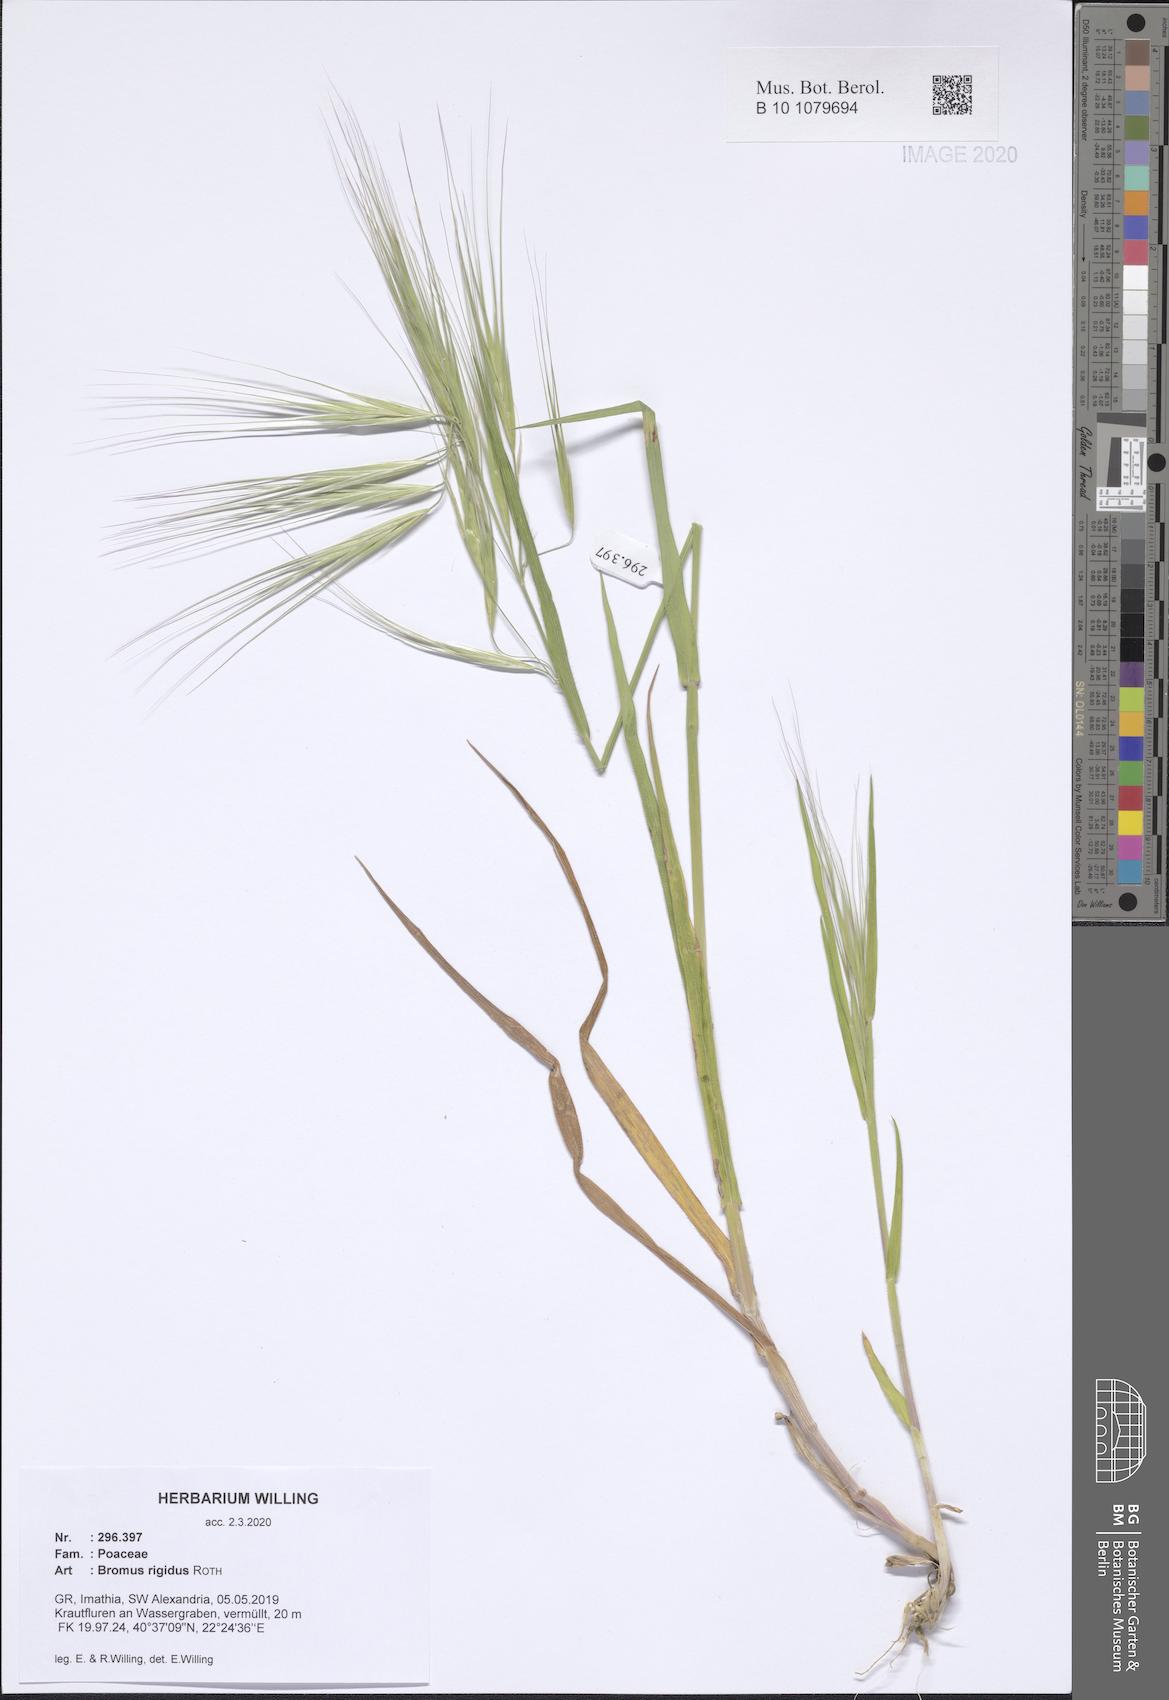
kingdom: Plantae
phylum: Tracheophyta
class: Liliopsida
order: Poales
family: Poaceae
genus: Bromus
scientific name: Bromus rigidus
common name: Ripgut brome
